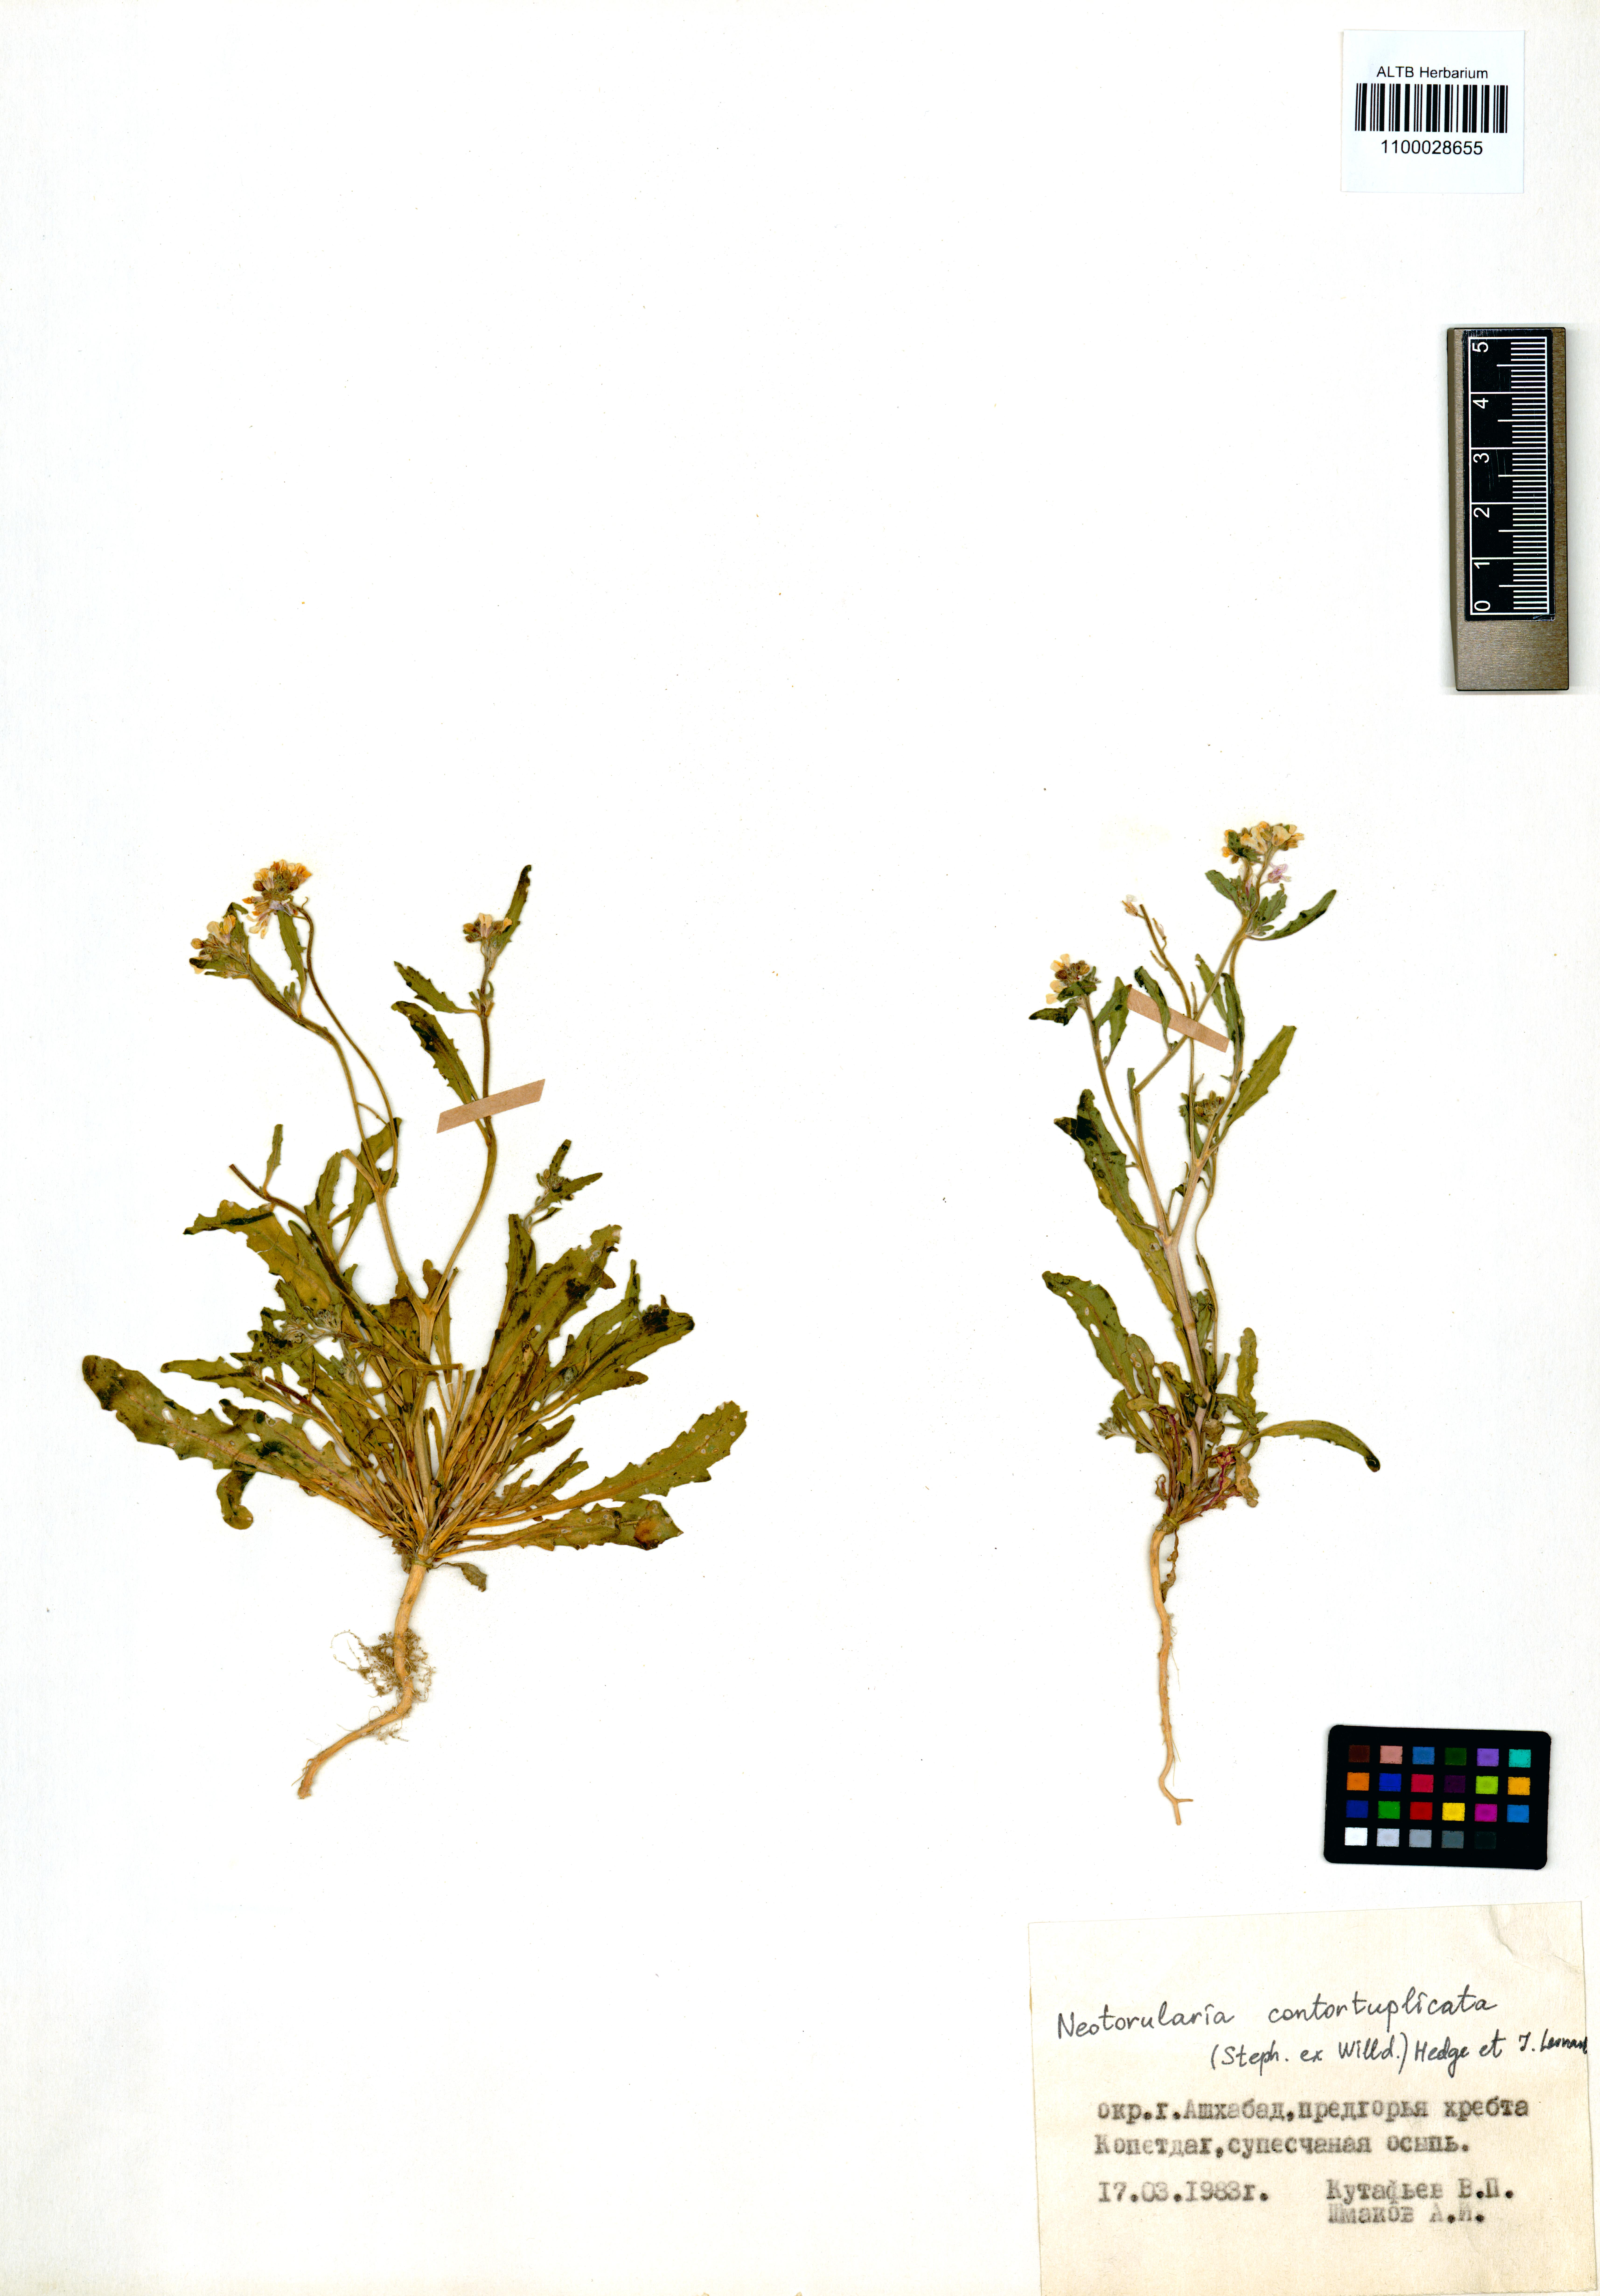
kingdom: Plantae
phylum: Tracheophyta
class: Magnoliopsida
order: Brassicales
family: Brassicaceae
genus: Neotorularia
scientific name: Neotorularia contortuplicata
